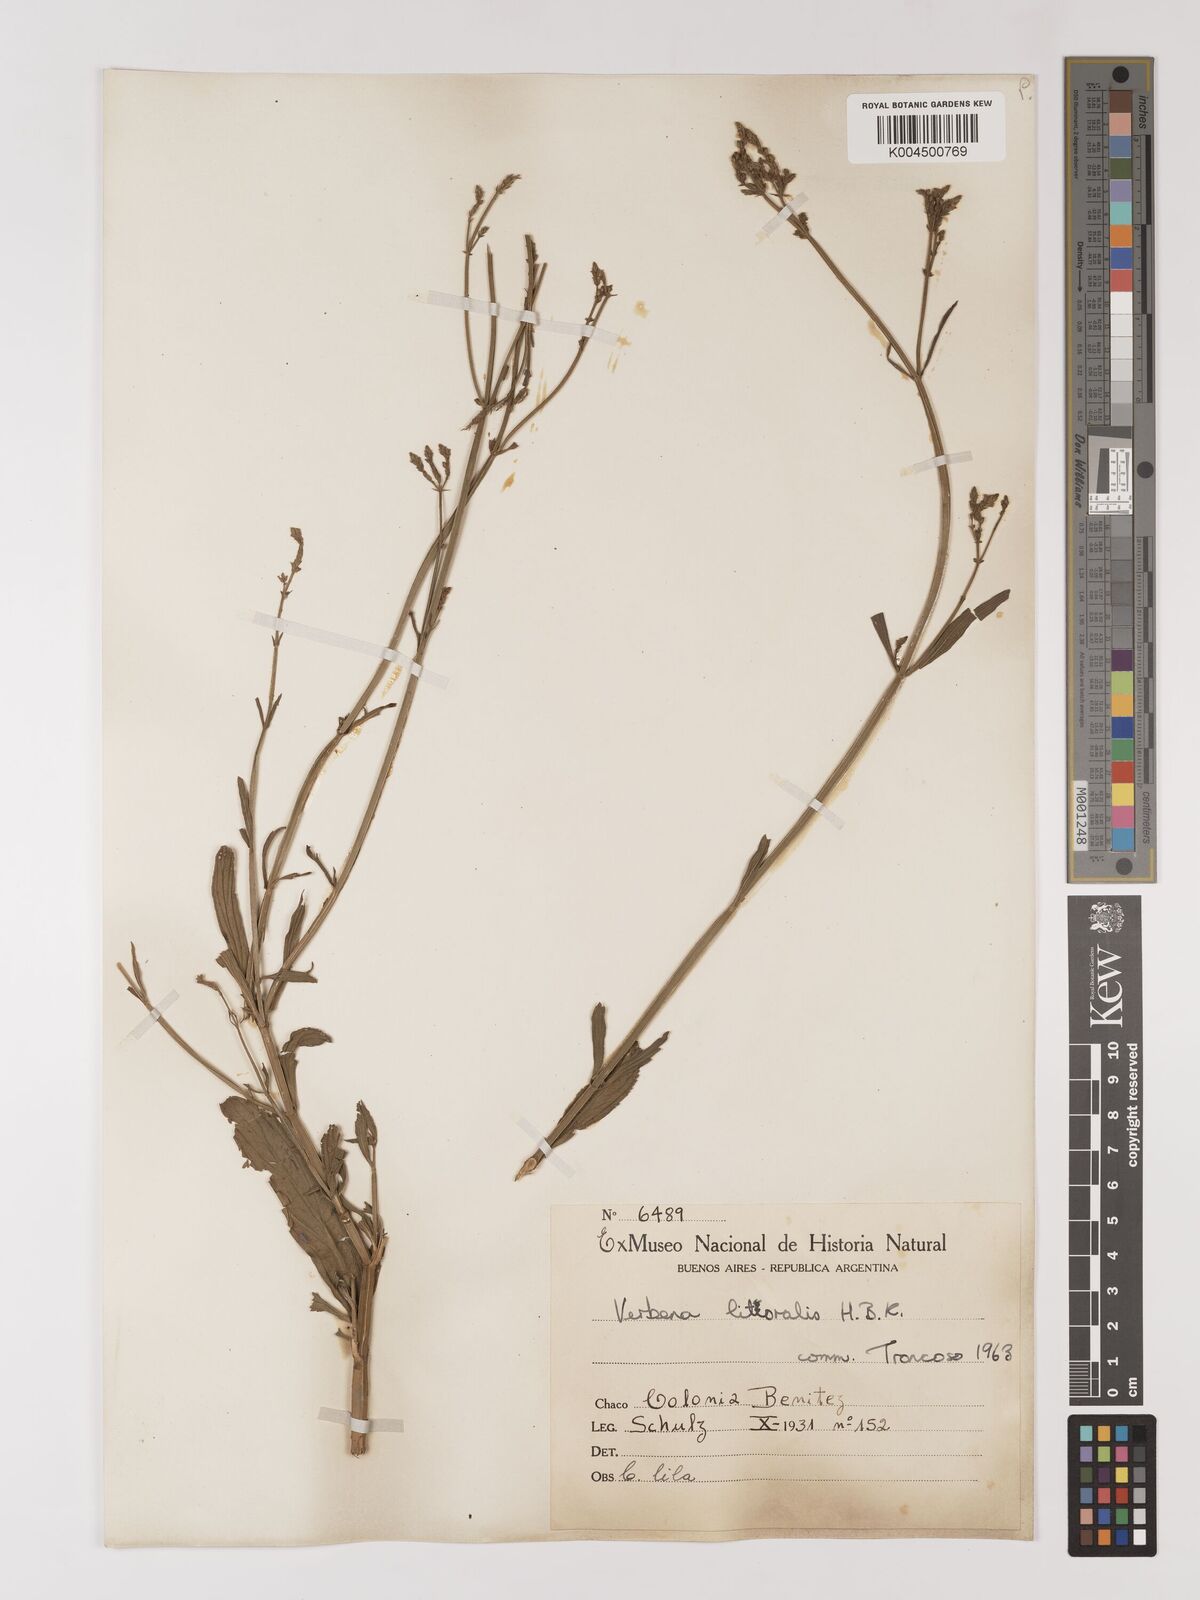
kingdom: Plantae
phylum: Tracheophyta
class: Magnoliopsida
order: Lamiales
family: Verbenaceae
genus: Verbena
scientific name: Verbena litoralis
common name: Seashore vervain
